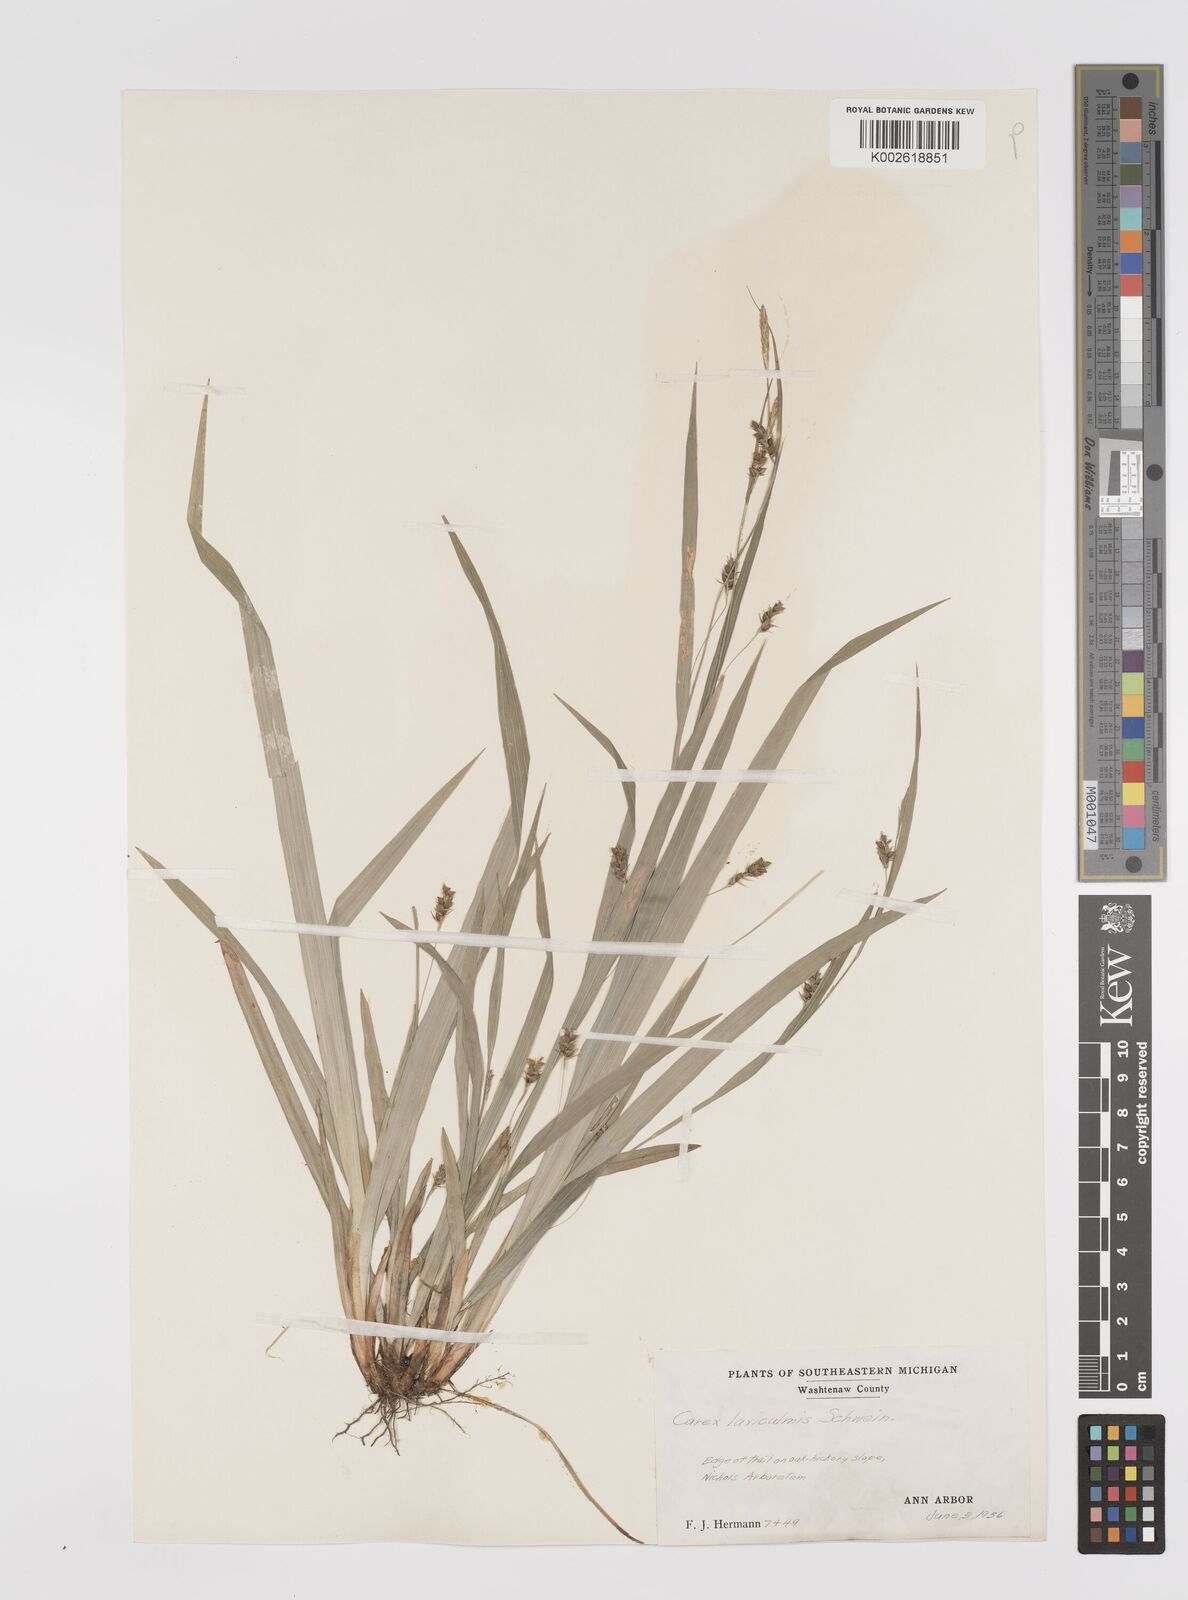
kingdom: Plantae
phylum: Tracheophyta
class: Liliopsida
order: Poales
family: Cyperaceae
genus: Carex
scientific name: Carex laxiculmis
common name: Spreading sedge
